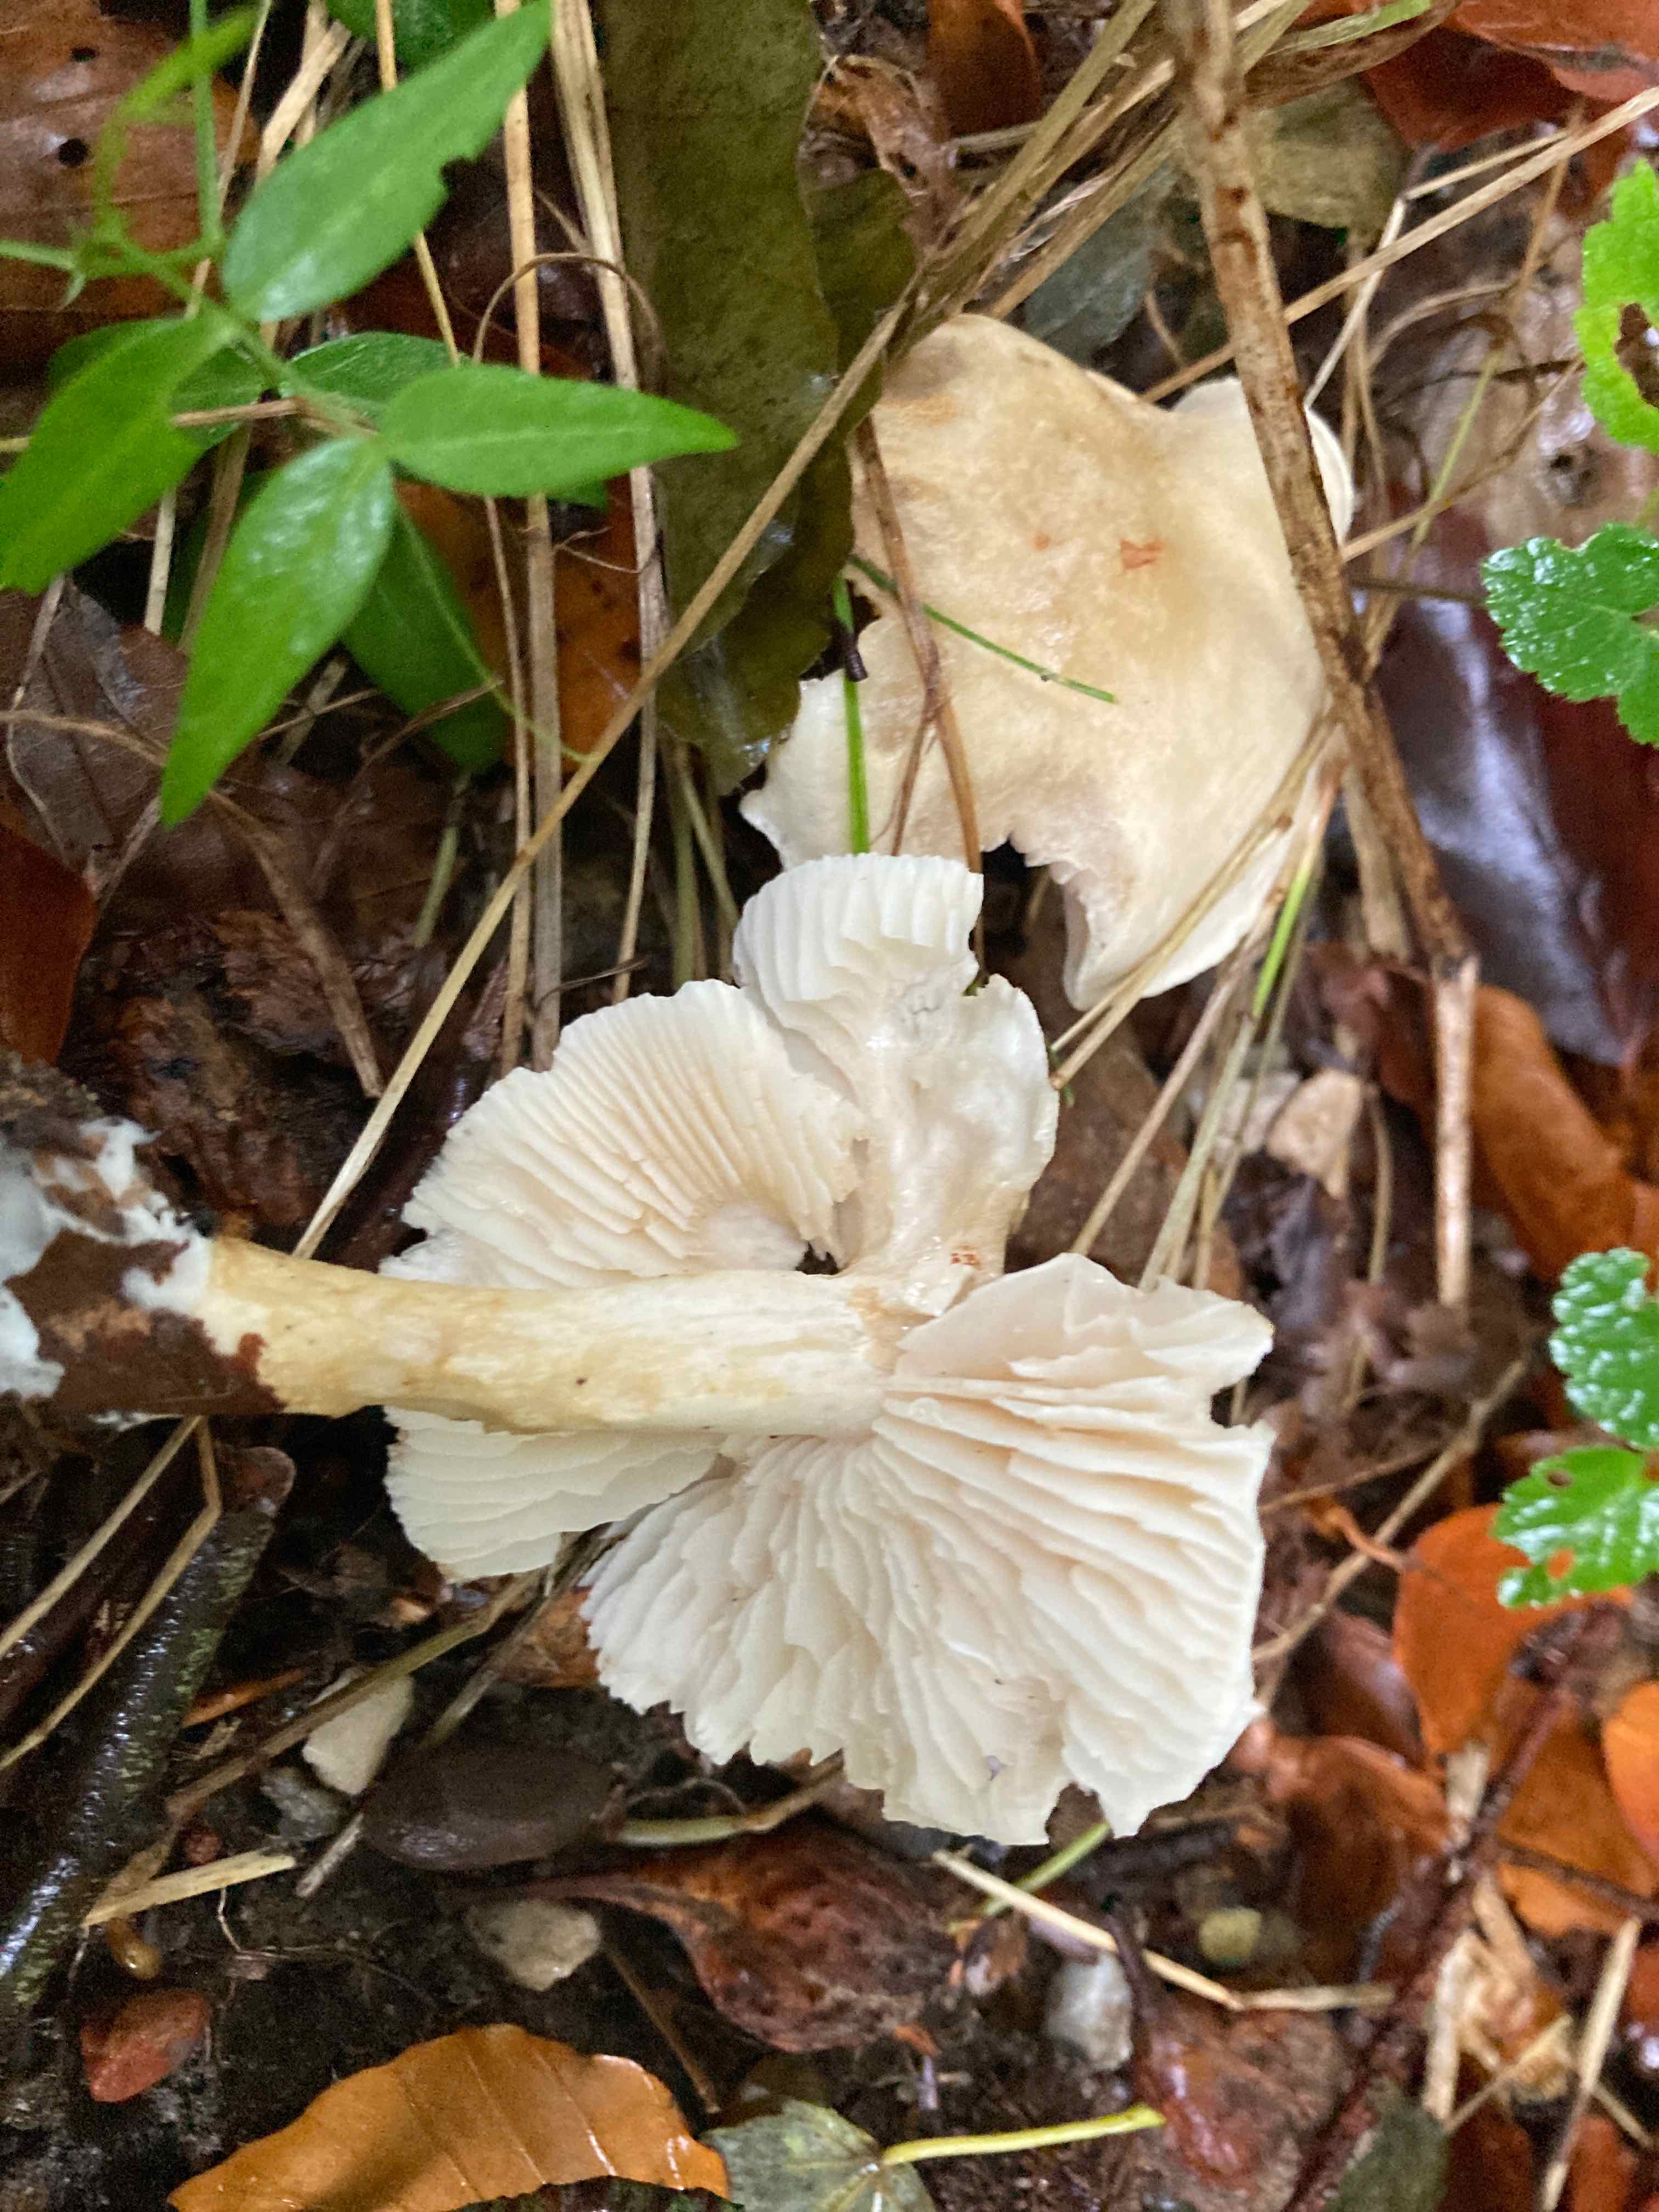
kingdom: Fungi
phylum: Basidiomycota
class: Agaricomycetes
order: Agaricales
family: Tricholomataceae
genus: Tricholoma
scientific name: Tricholoma lascivum
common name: stinkende ridderhat
